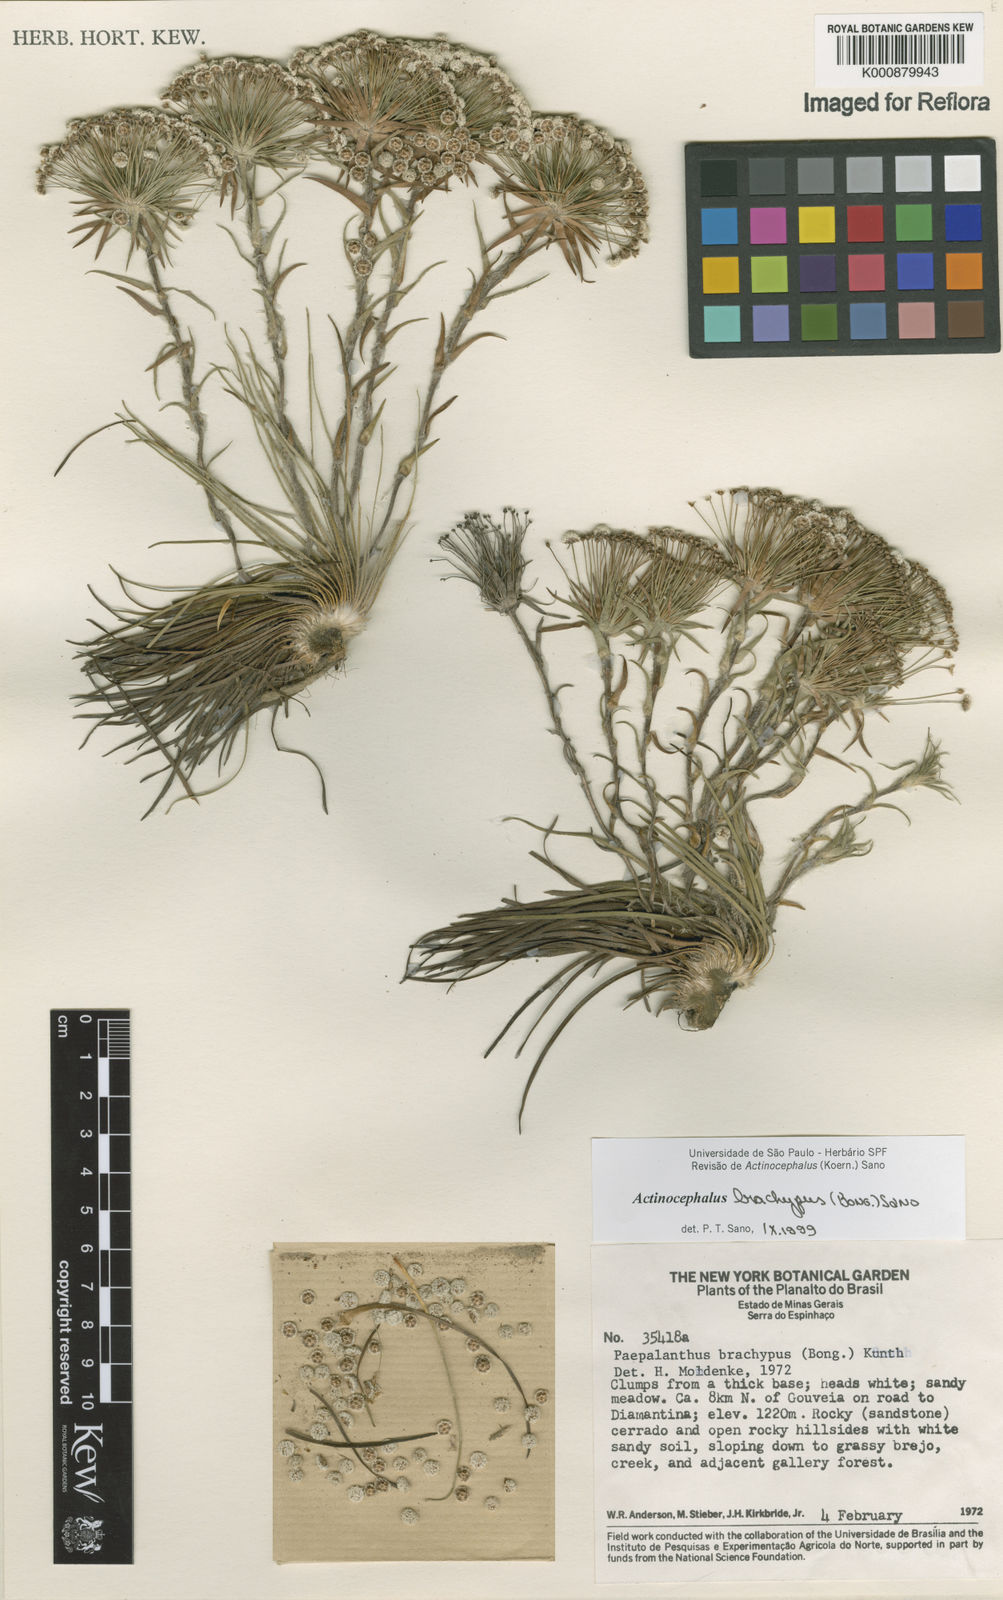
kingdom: Plantae
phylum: Tracheophyta
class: Liliopsida
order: Poales
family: Eriocaulaceae
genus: Paepalanthus
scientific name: Paepalanthus brachypus
